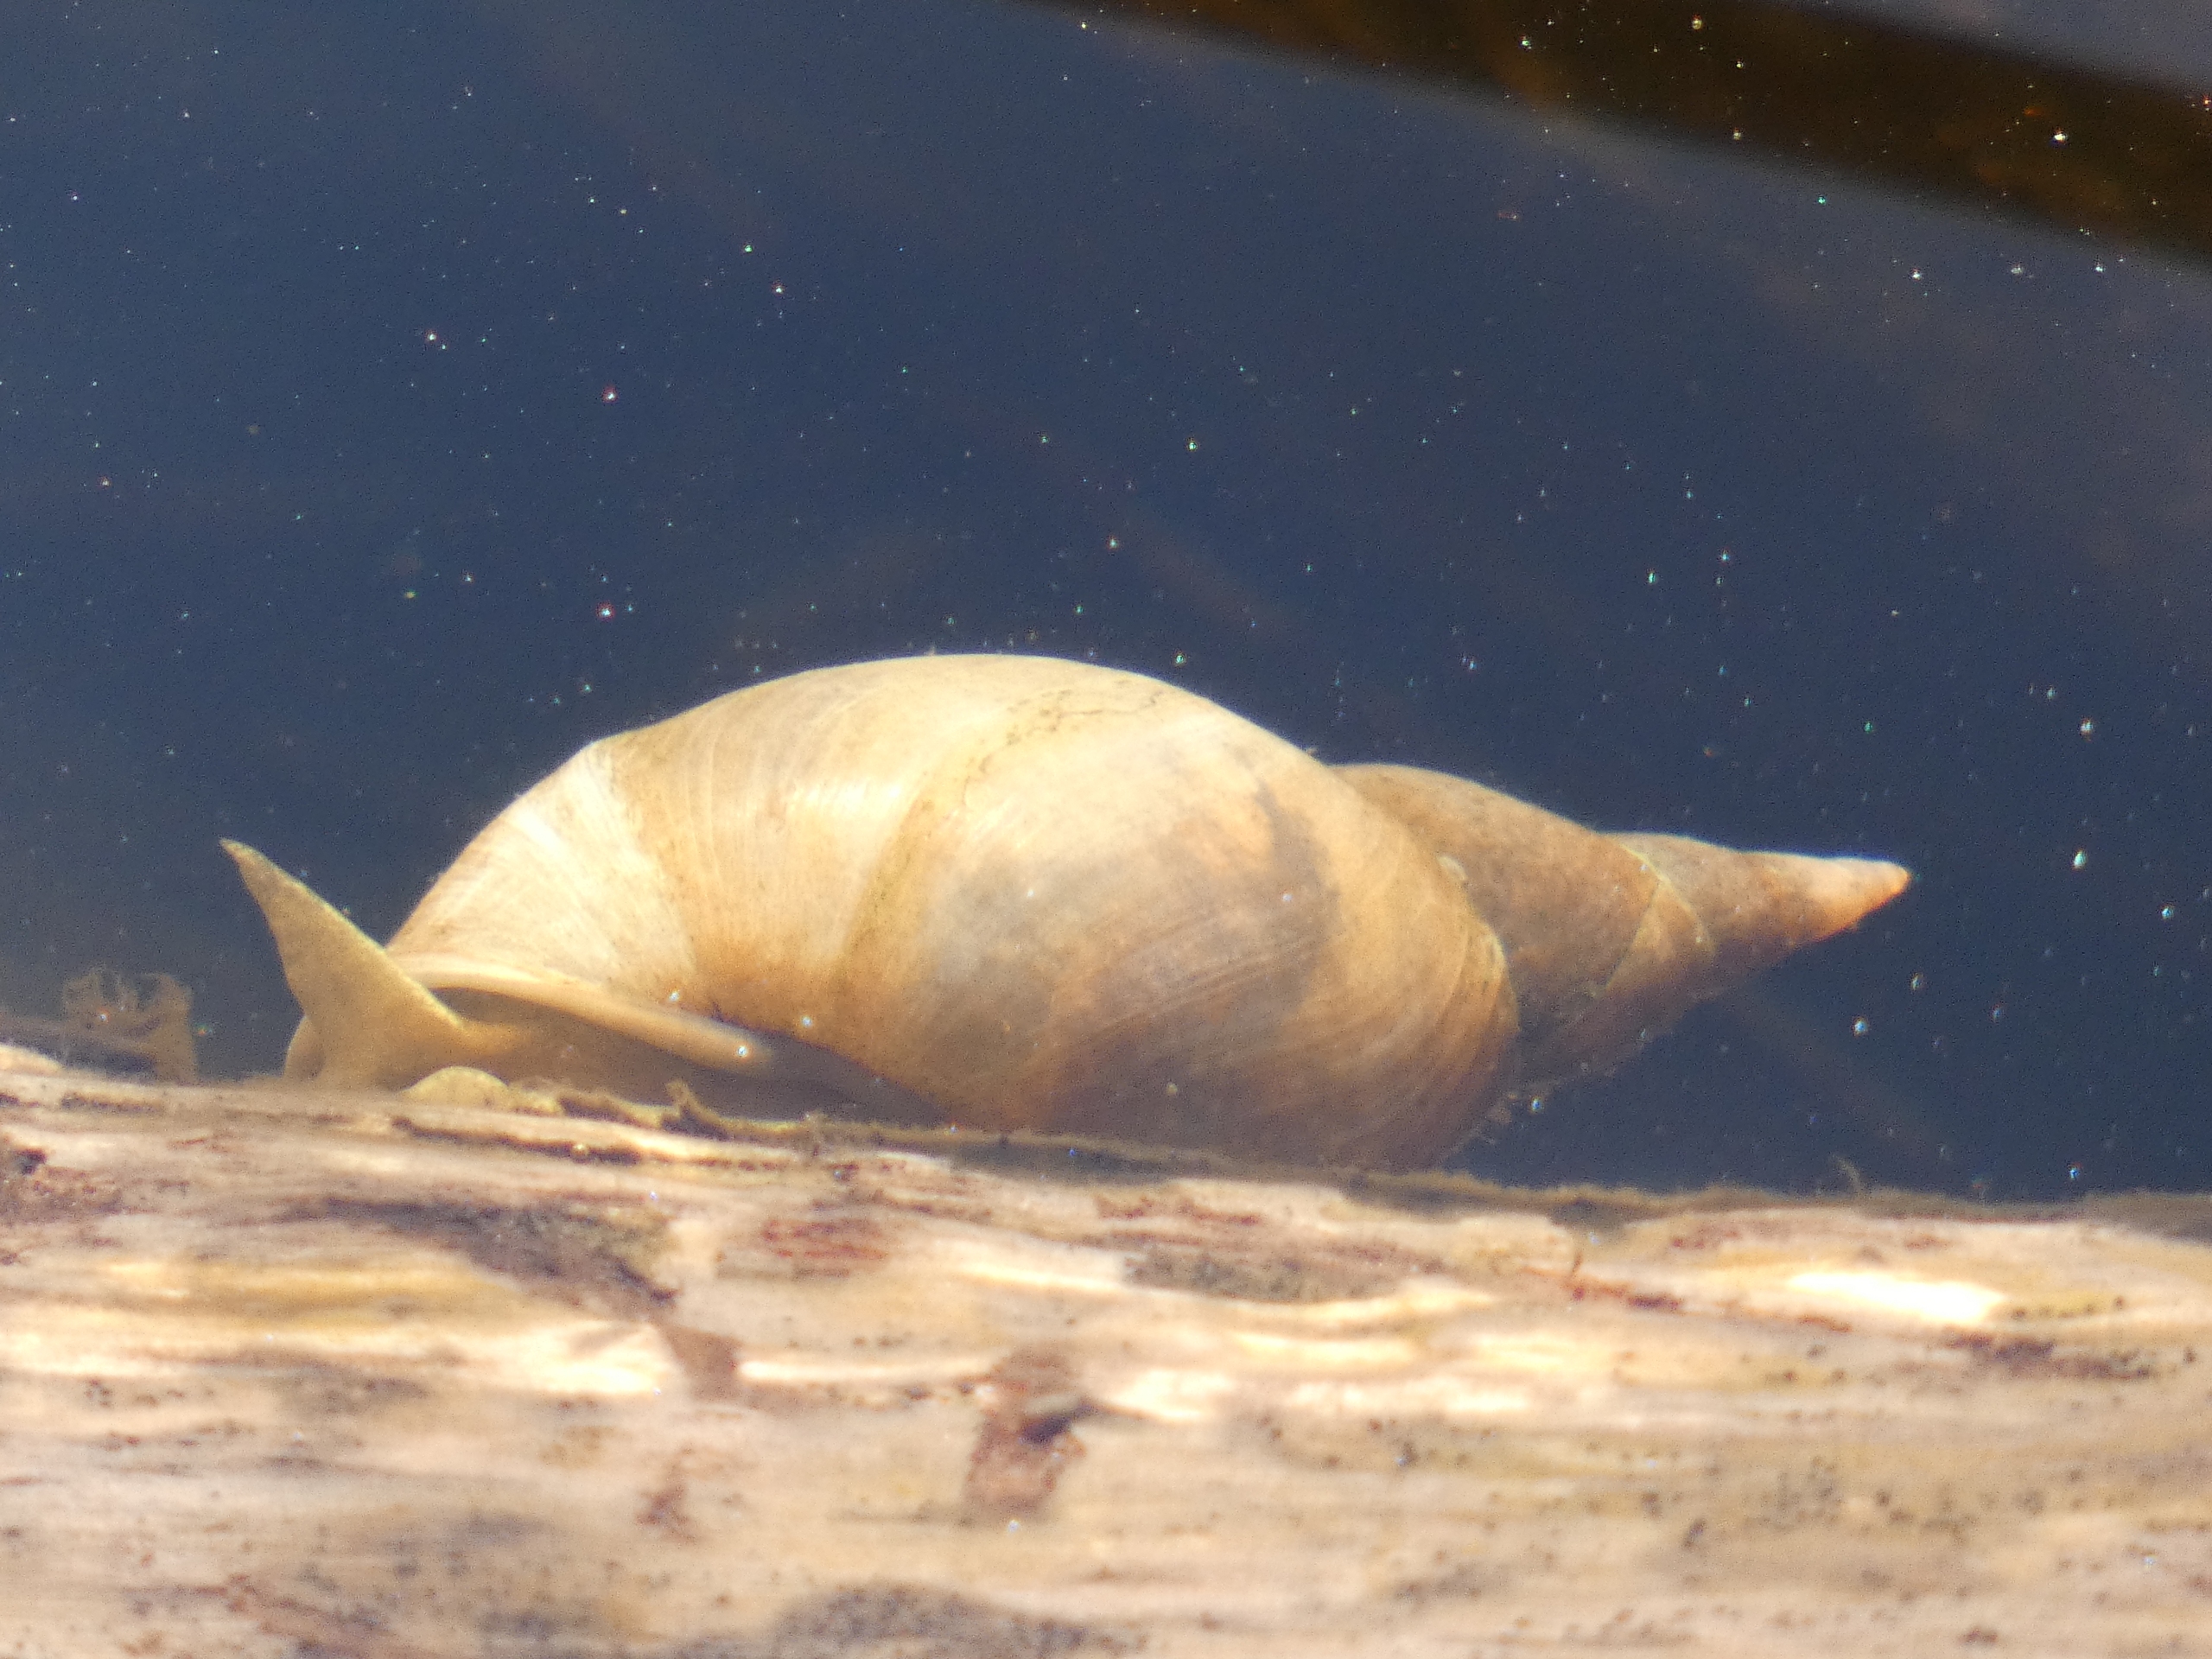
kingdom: Animalia
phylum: Mollusca
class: Gastropoda
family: Lymnaeidae
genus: Lymnaea
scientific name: Lymnaea stagnalis
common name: Stor mosesnegl
